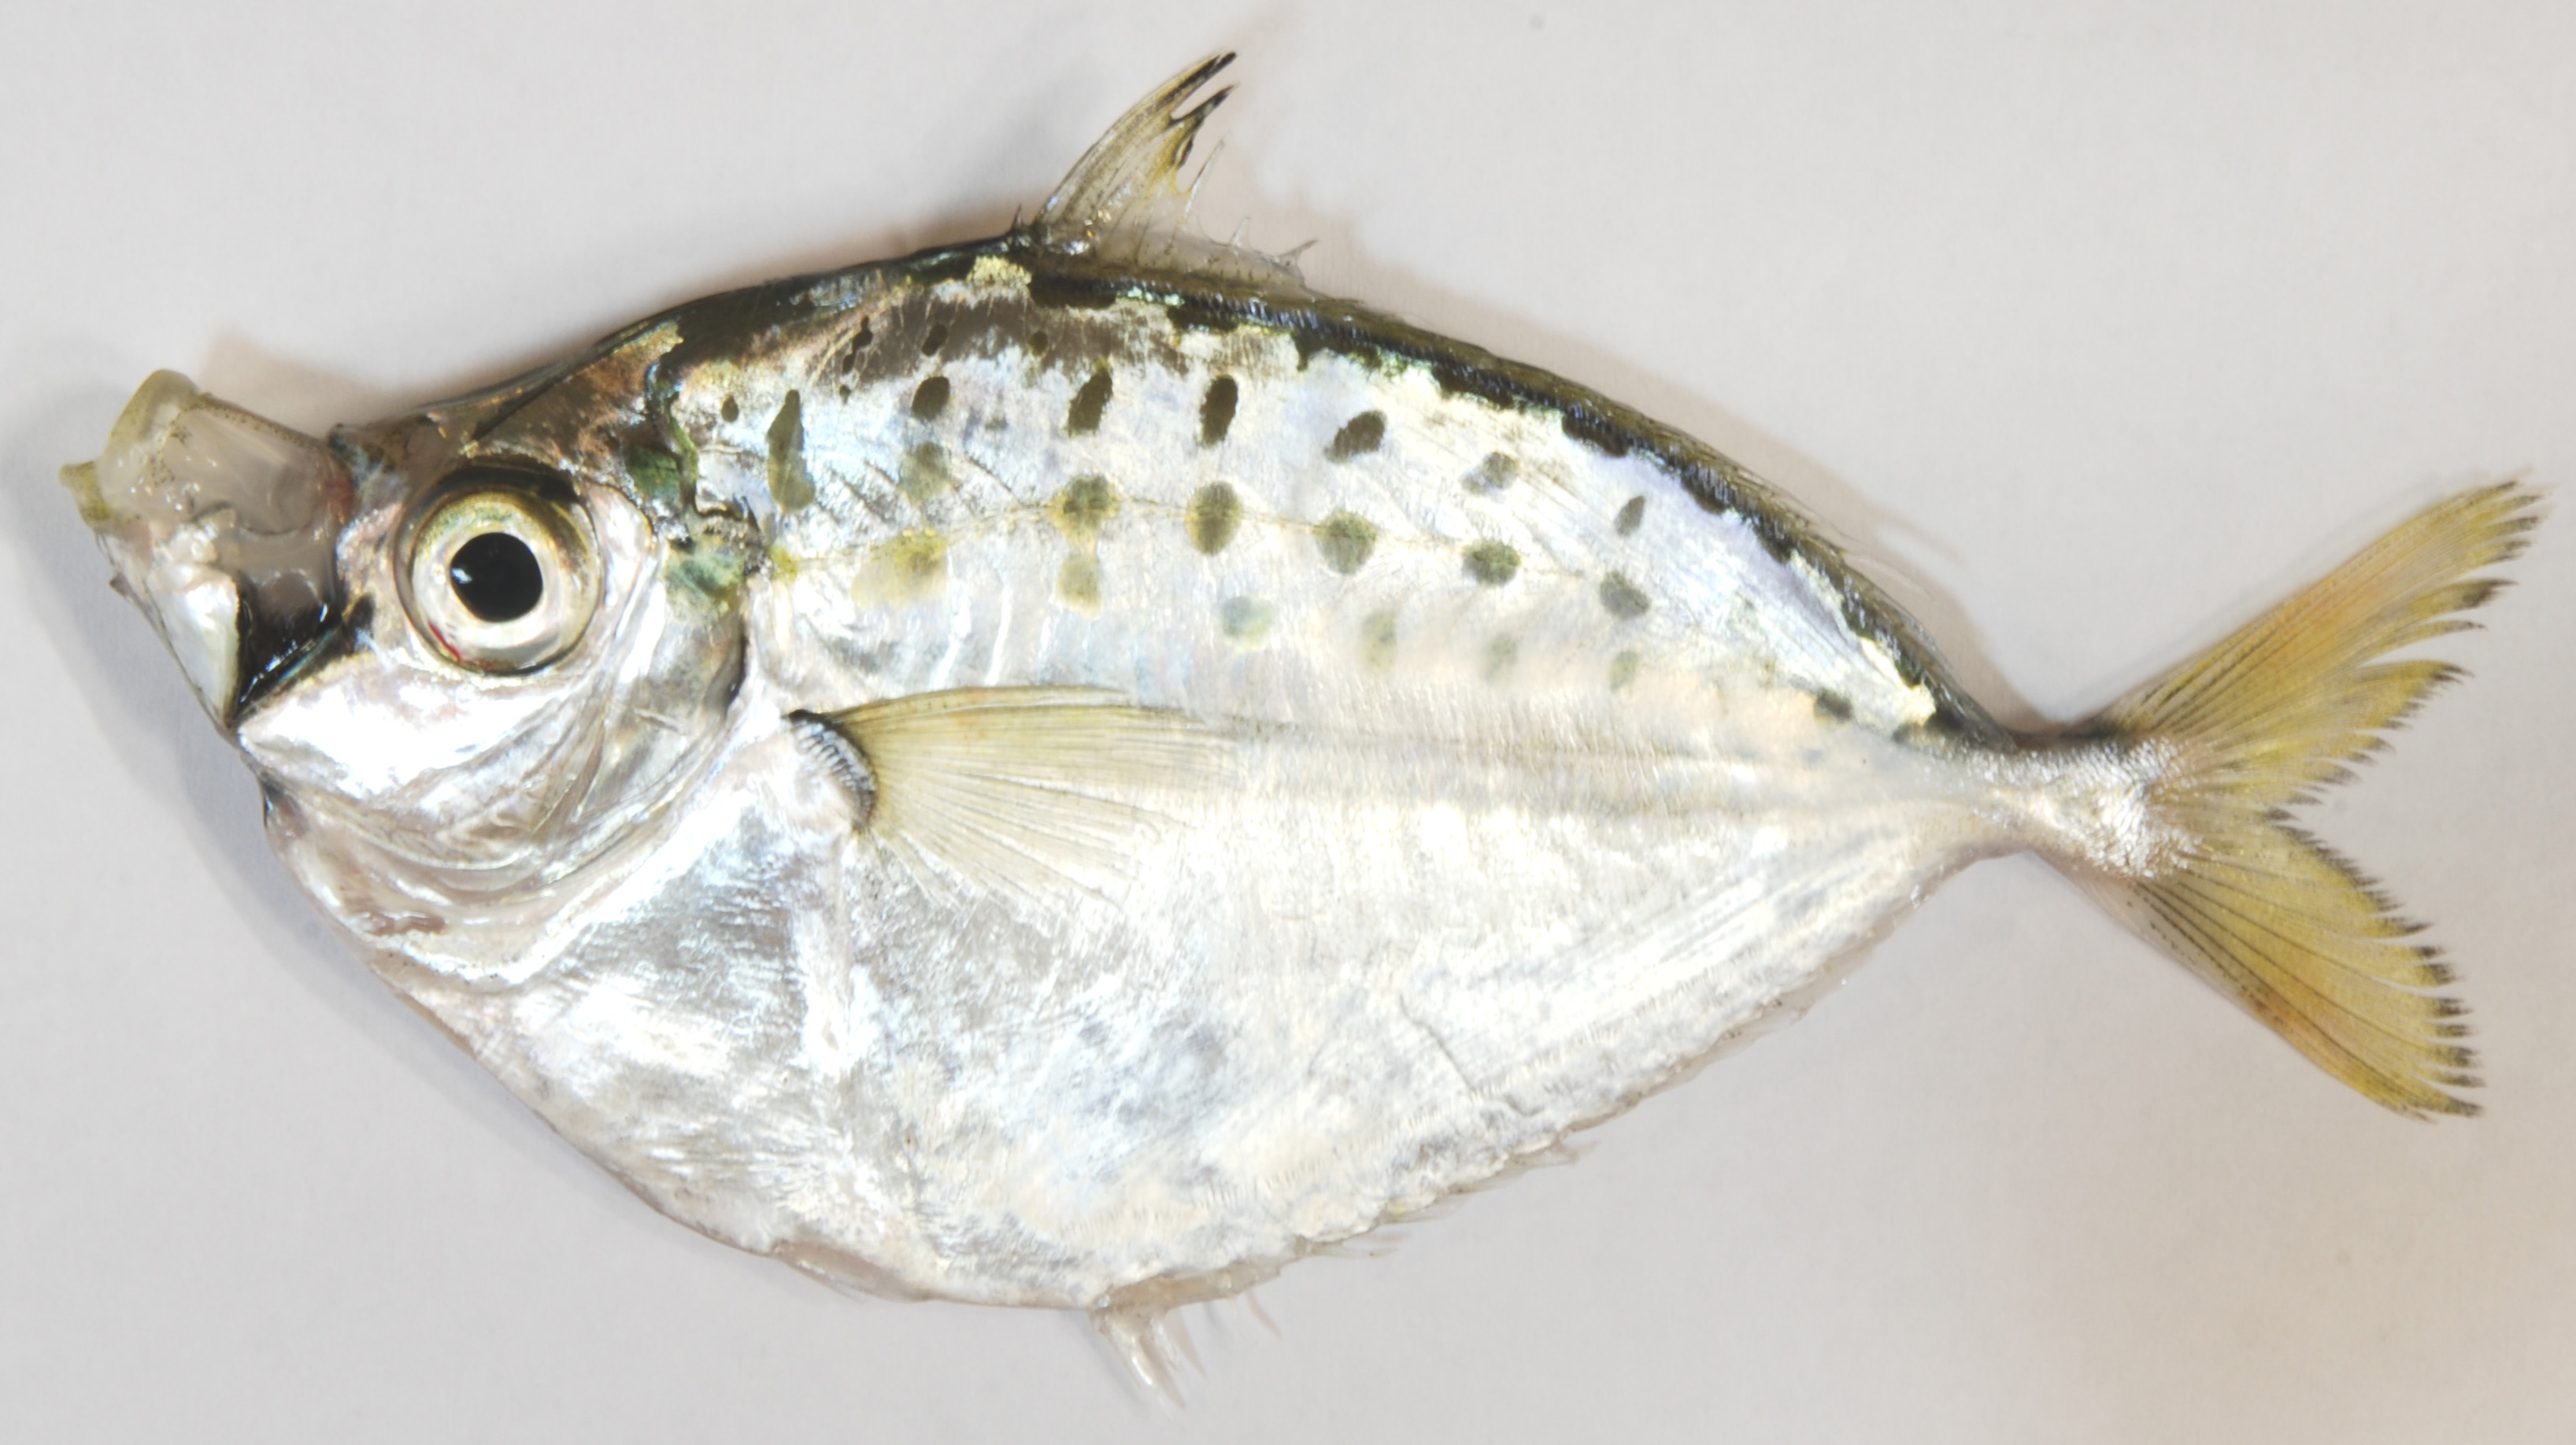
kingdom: Animalia
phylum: Chordata
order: Perciformes
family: Leiognathidae
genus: Secutor
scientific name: Secutor insidiator
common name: Pugnose ponyfish
